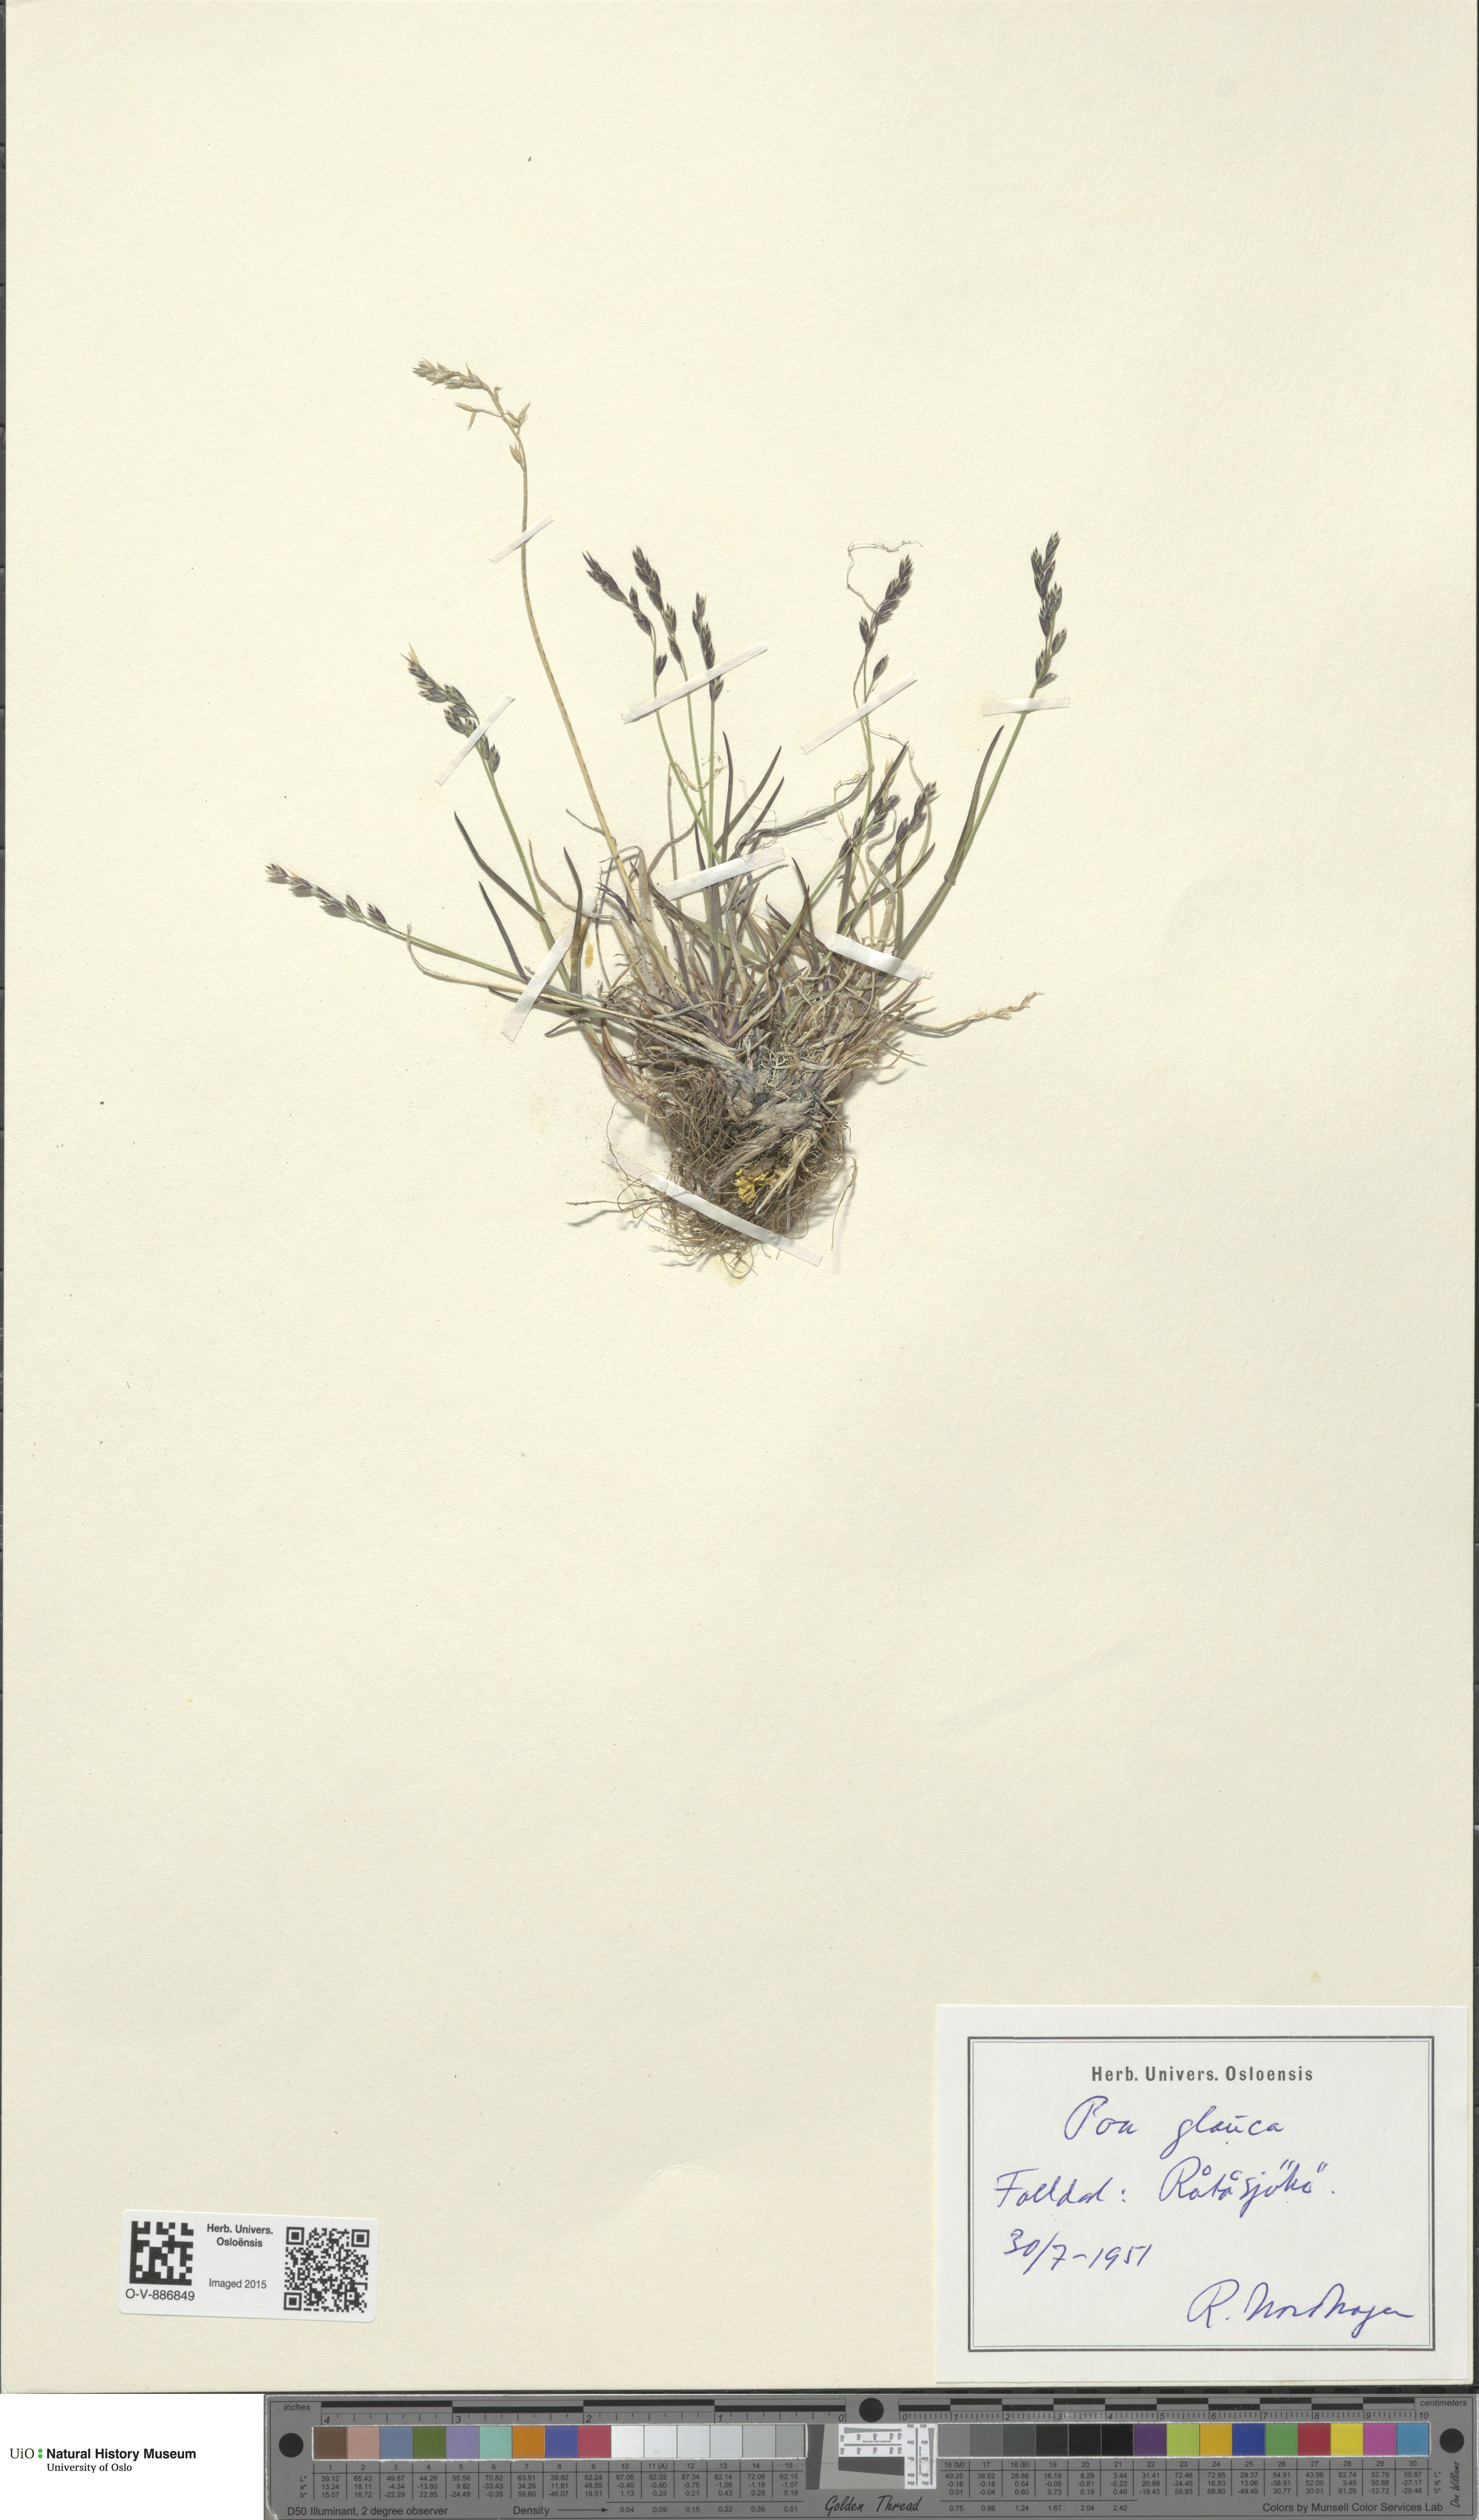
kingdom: Plantae
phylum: Tracheophyta
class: Liliopsida
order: Poales
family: Poaceae
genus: Poa
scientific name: Poa glauca
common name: Glaucous bluegrass
